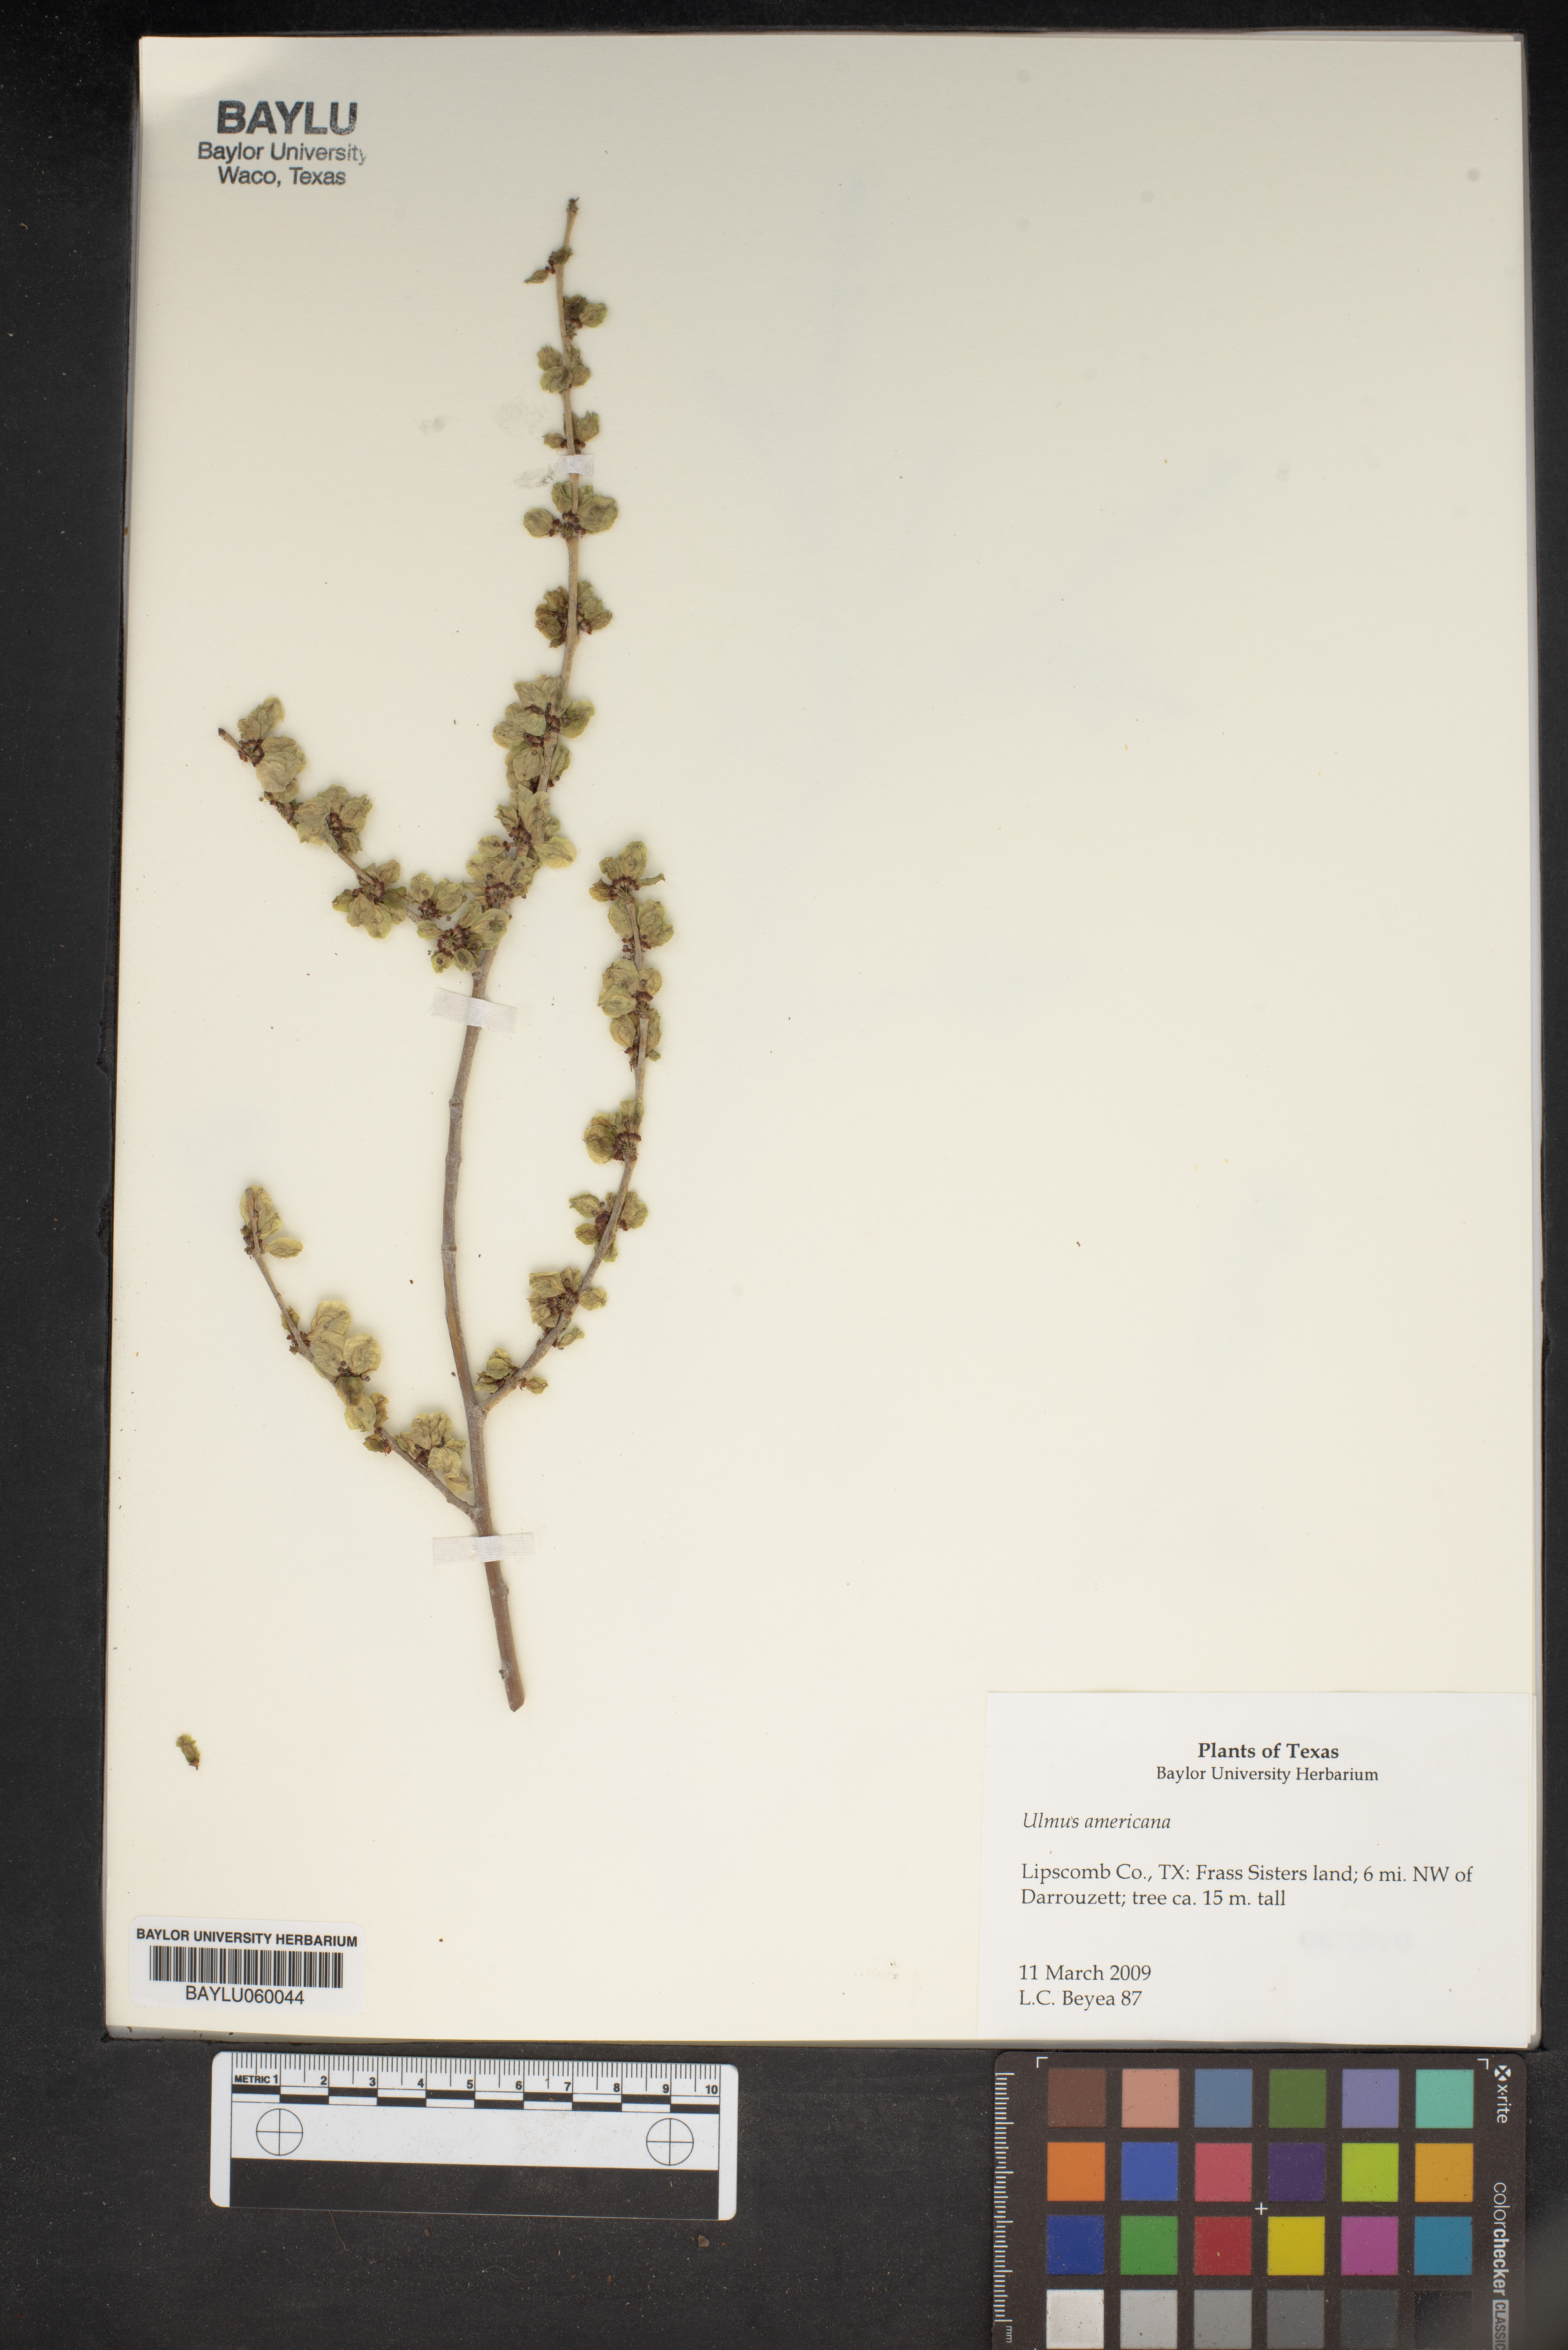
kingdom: Plantae
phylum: Tracheophyta
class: Magnoliopsida
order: Rosales
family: Ulmaceae
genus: Ulmus
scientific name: Ulmus americana
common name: American elm
